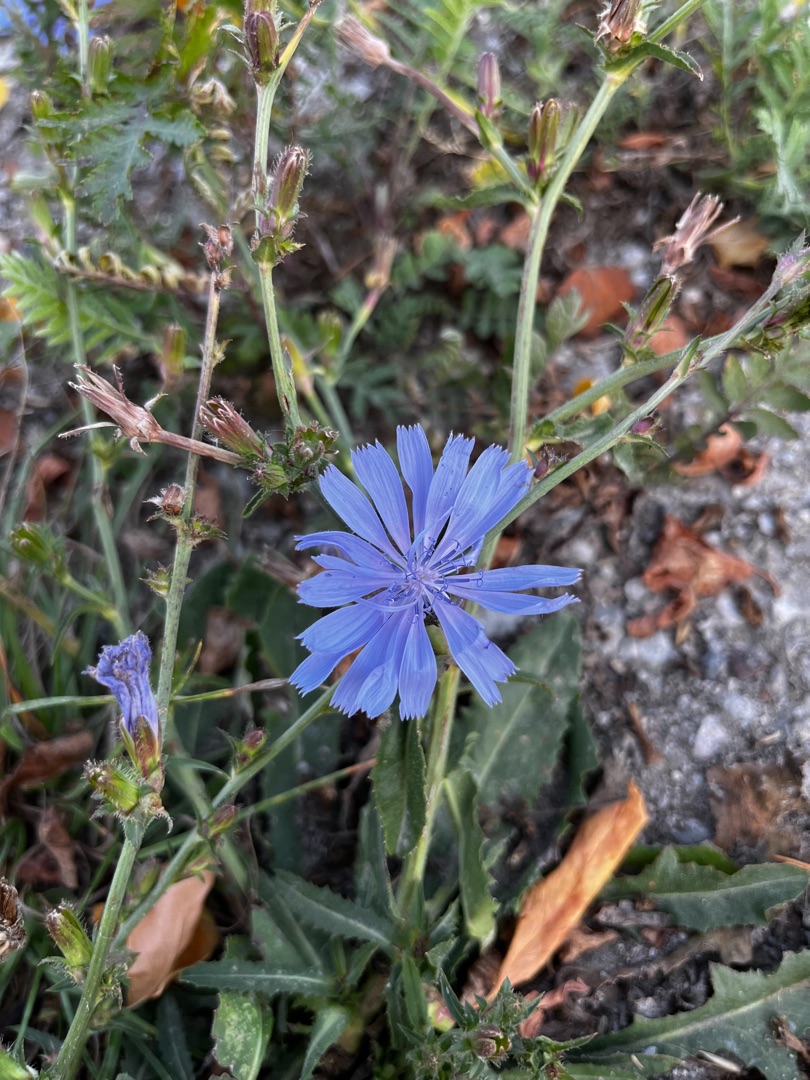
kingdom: Plantae
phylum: Tracheophyta
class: Magnoliopsida
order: Asterales
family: Asteraceae
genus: Cichorium
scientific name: Cichorium intybus
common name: Cikorie
